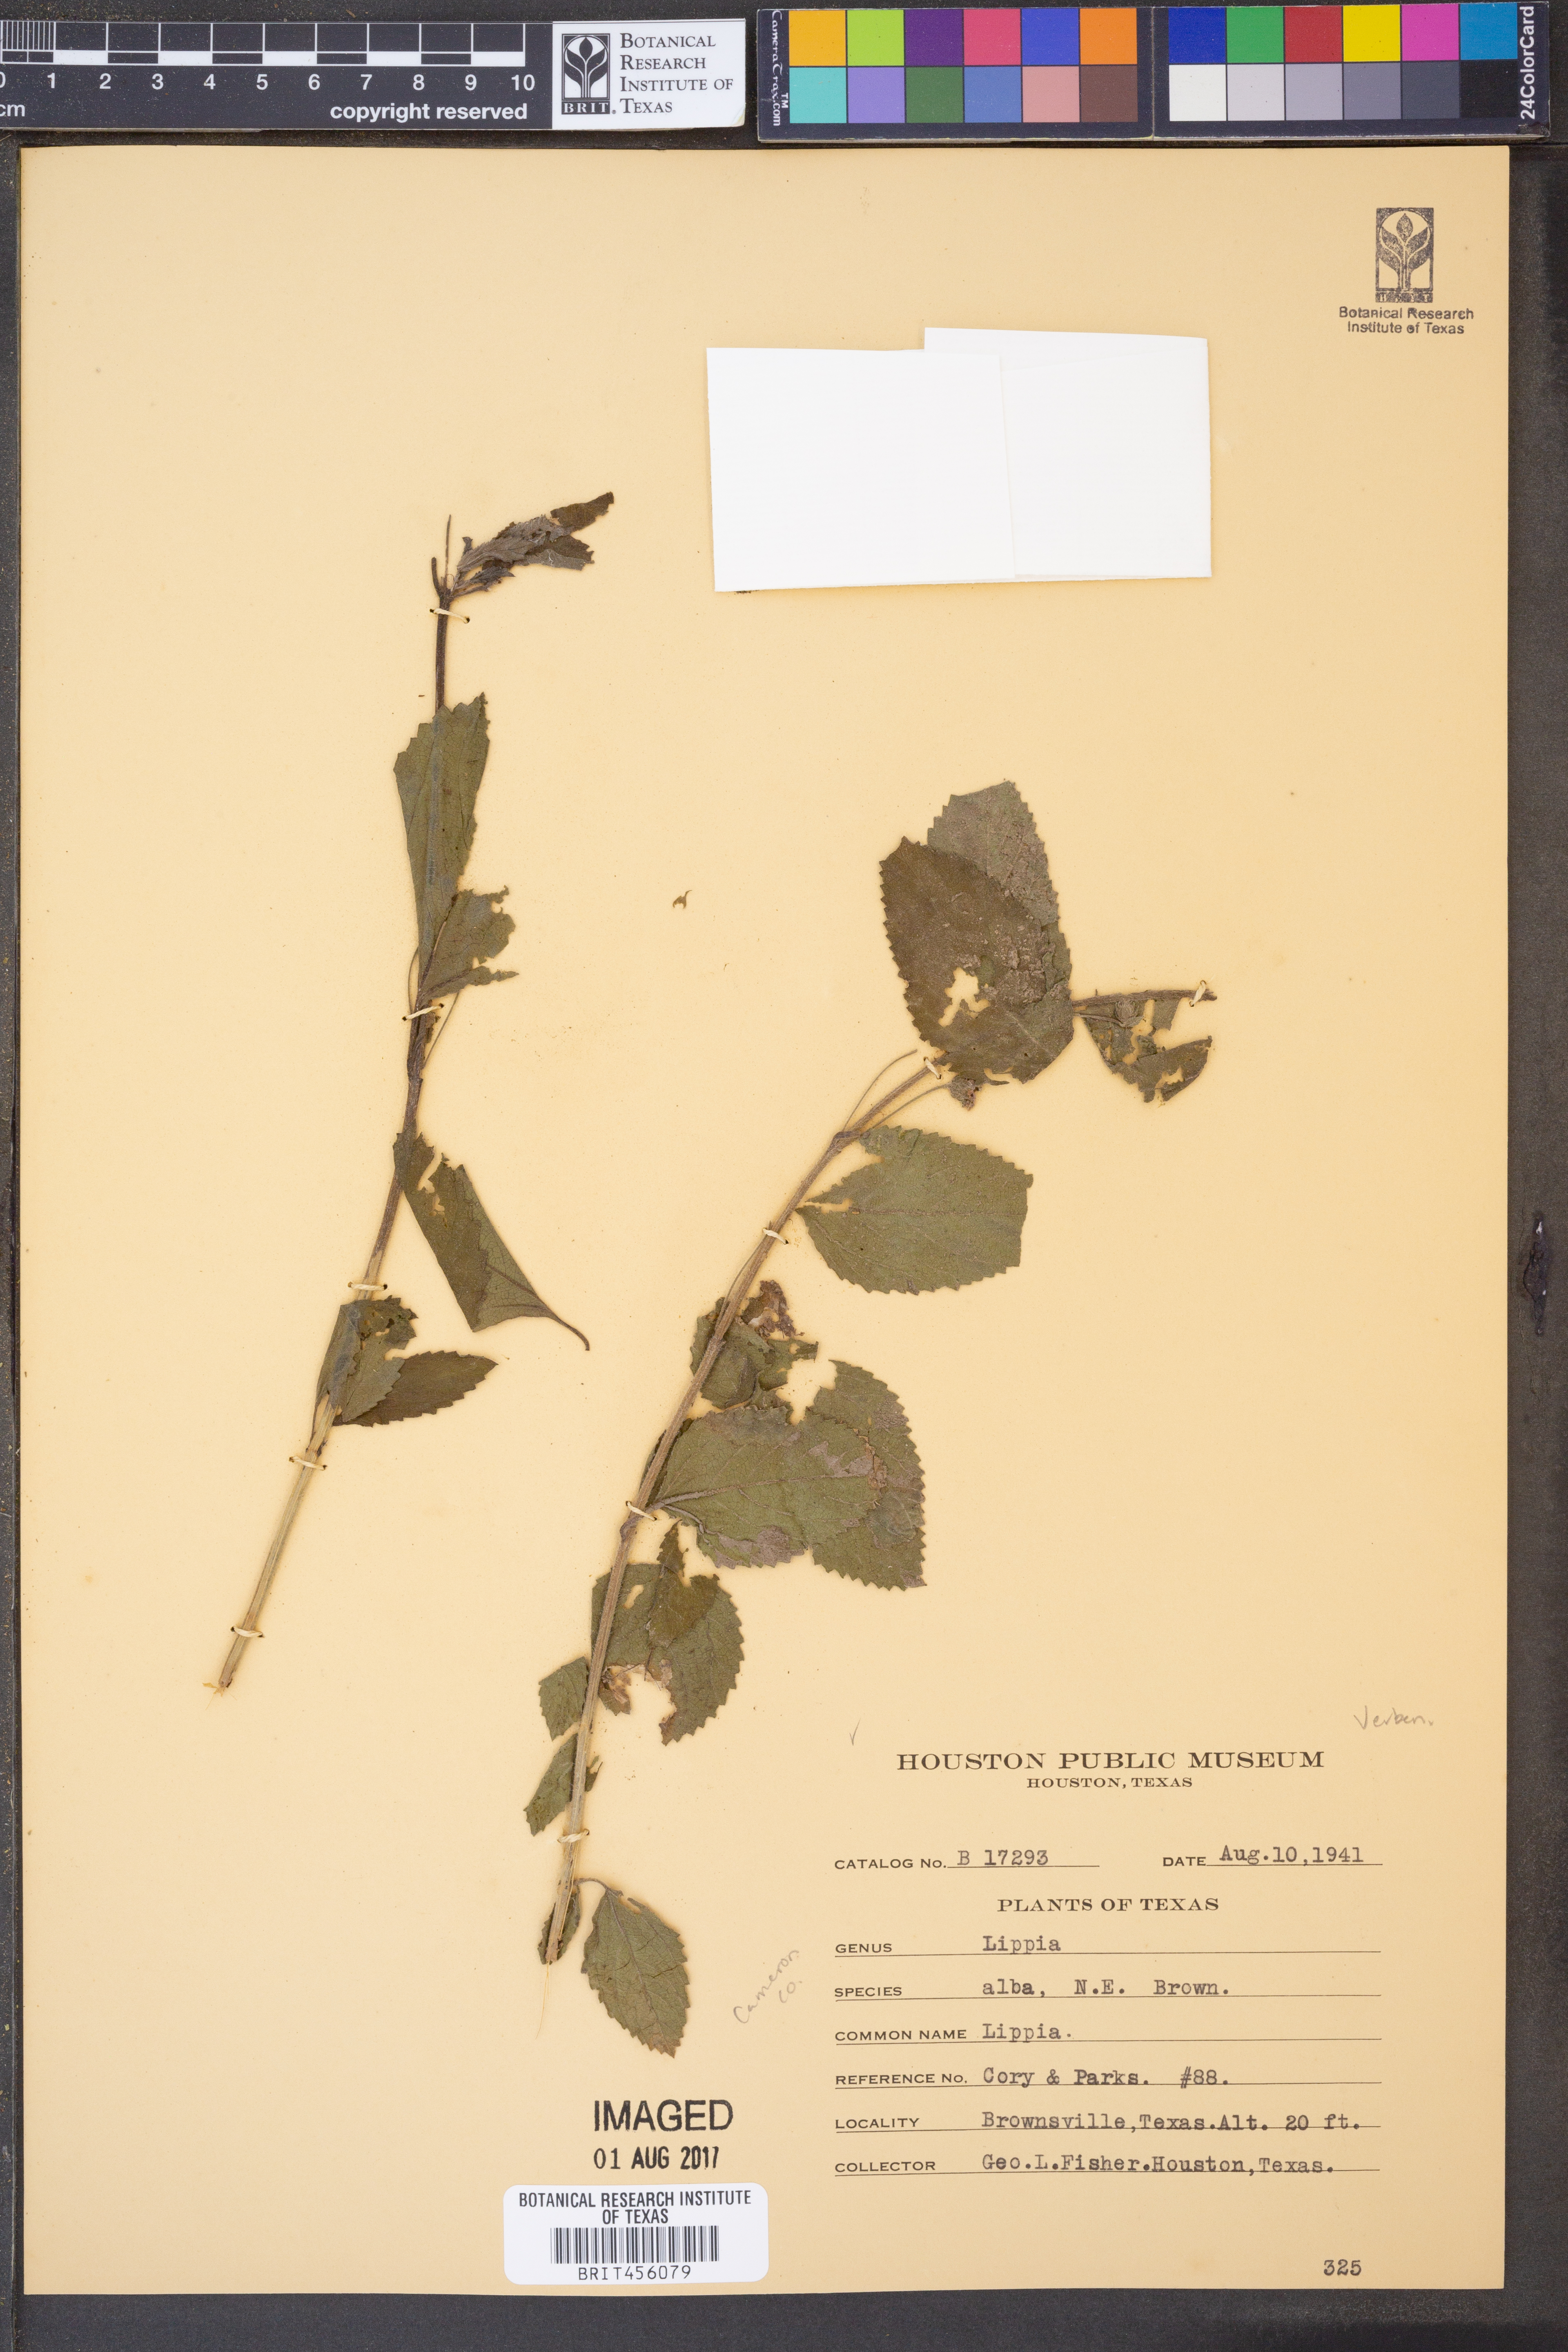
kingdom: Plantae
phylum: Tracheophyta
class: Magnoliopsida
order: Lamiales
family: Verbenaceae
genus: Lippia
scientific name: Lippia alba
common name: Bushy matgrass
